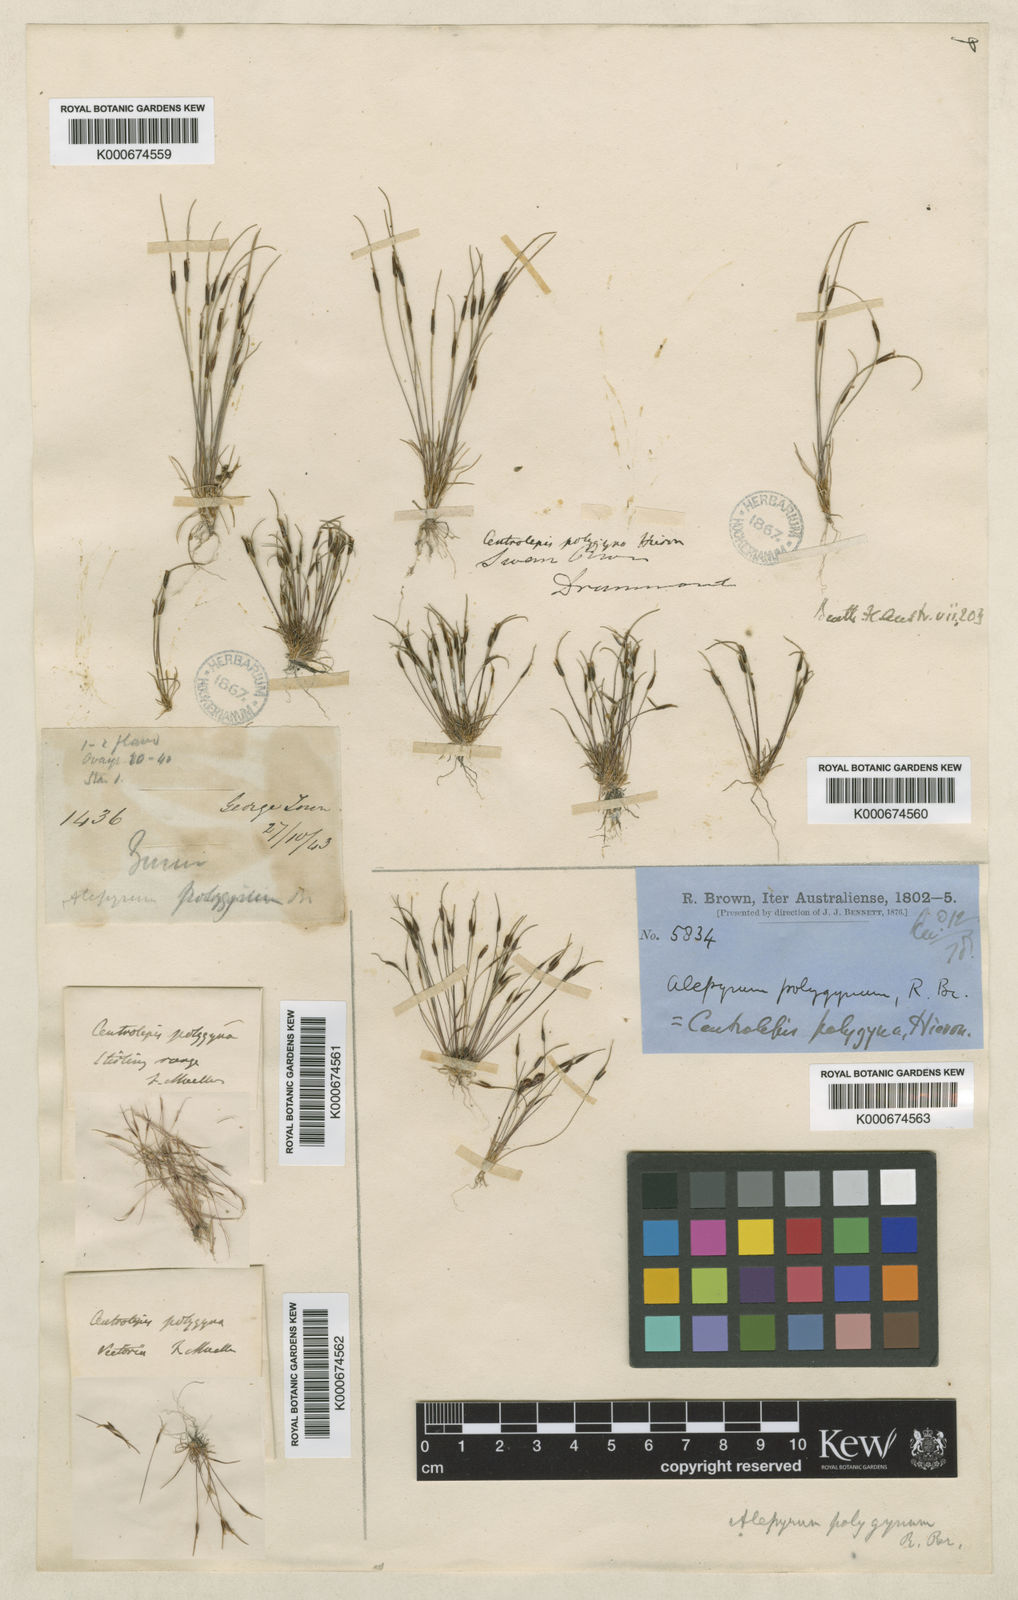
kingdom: Plantae
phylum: Tracheophyta
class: Liliopsida
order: Poales
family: Restionaceae
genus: Centrolepis
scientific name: Centrolepis polygyna
